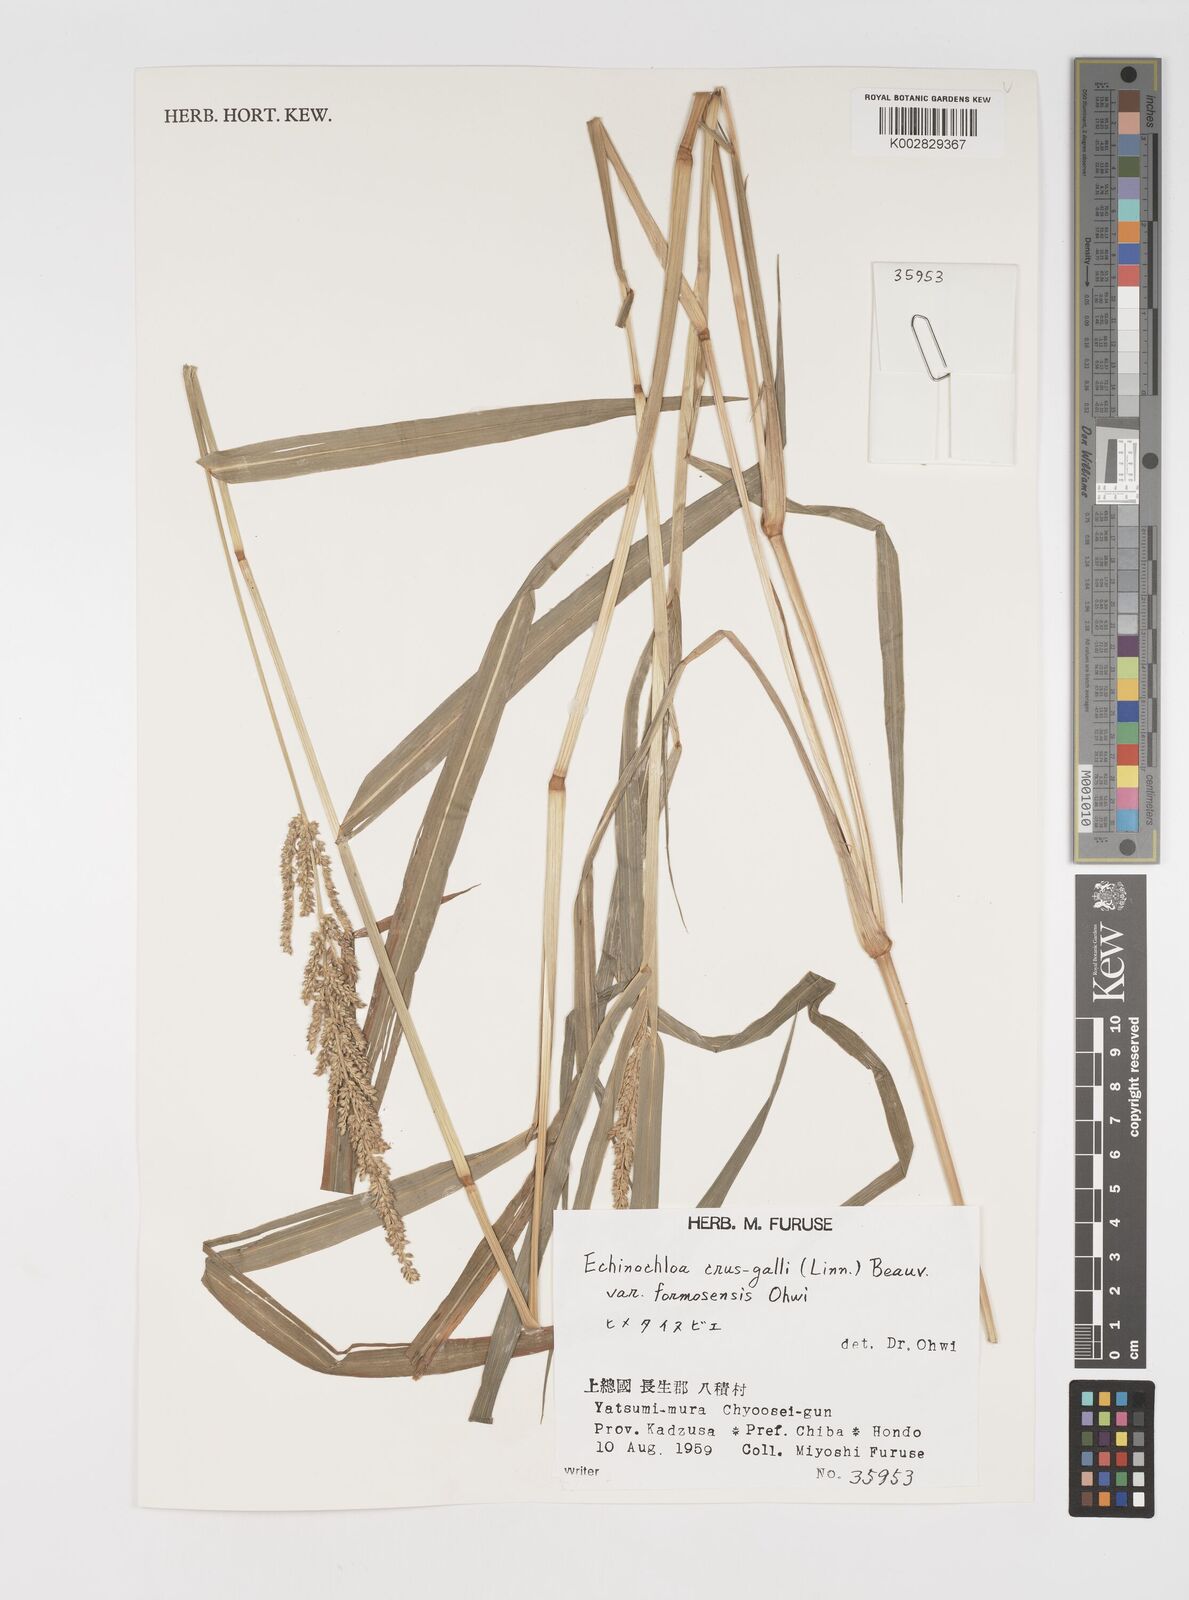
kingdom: Plantae
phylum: Tracheophyta
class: Liliopsida
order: Poales
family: Poaceae
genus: Echinochloa
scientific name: Echinochloa crus-galli
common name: Cockspur
